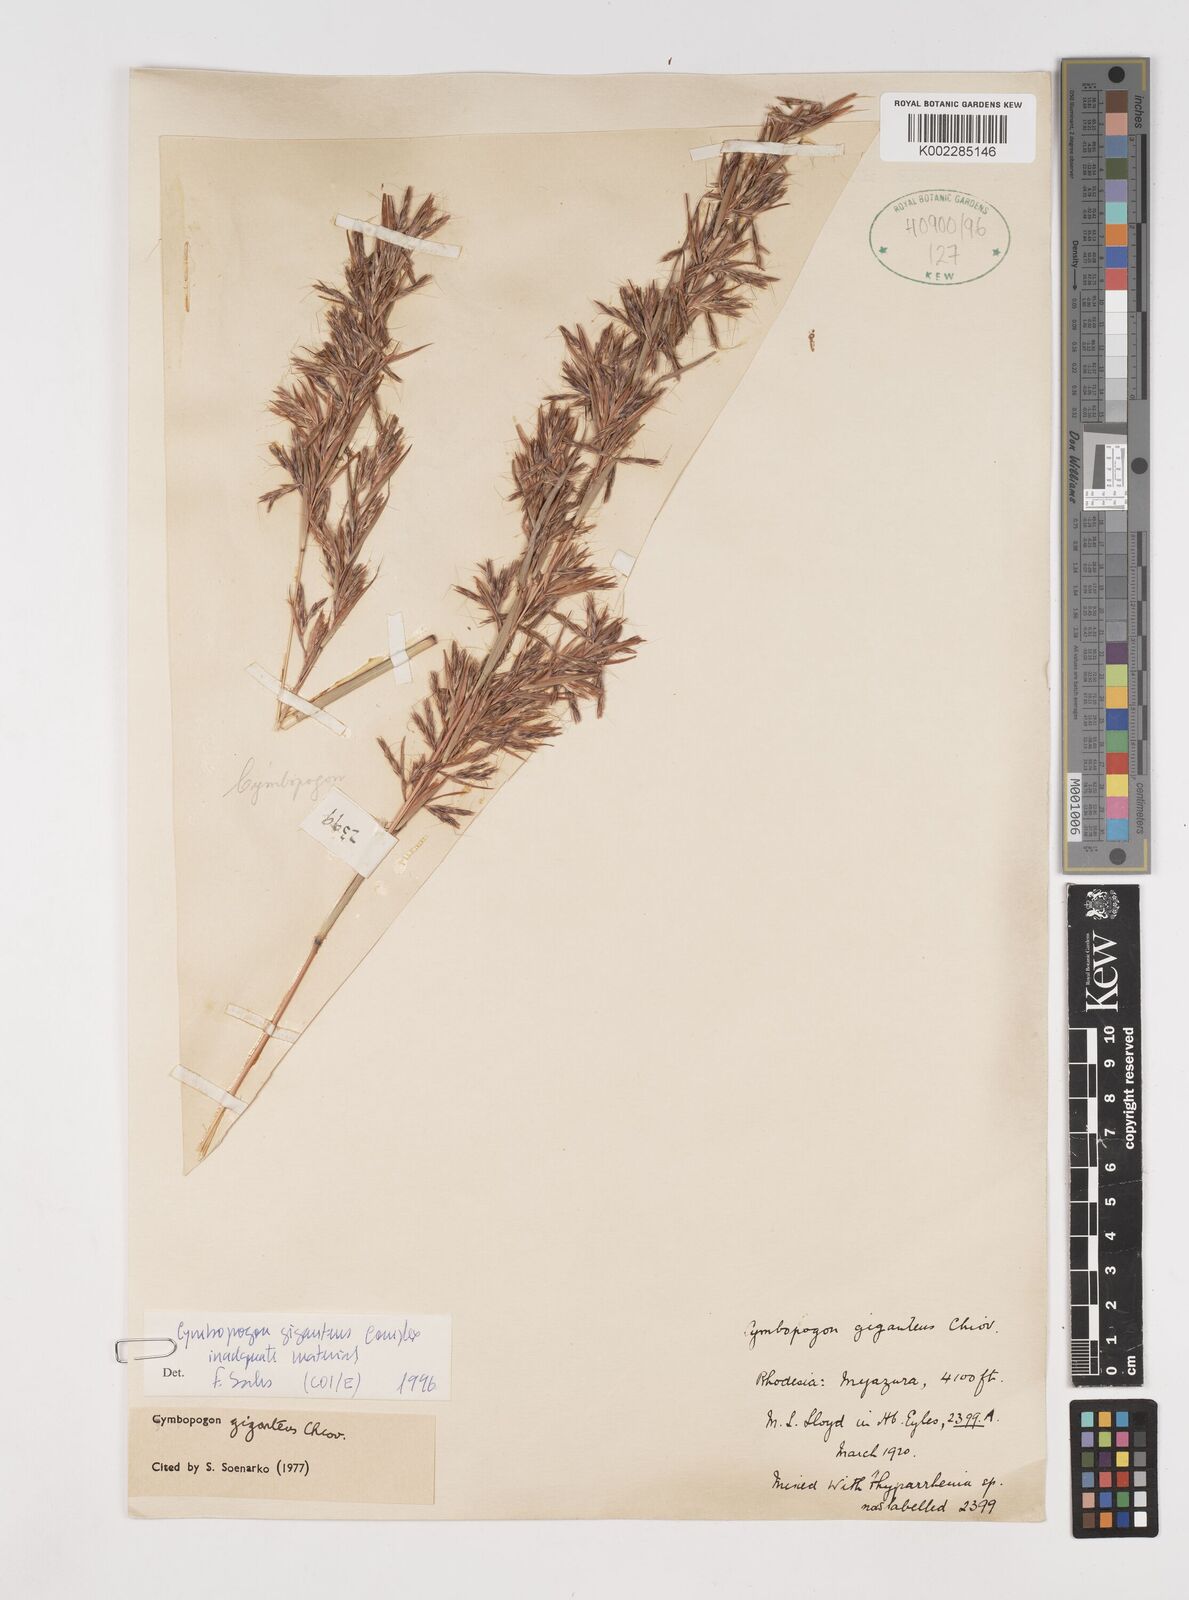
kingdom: Plantae
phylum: Tracheophyta
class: Liliopsida
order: Poales
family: Poaceae
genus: Cymbopogon
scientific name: Cymbopogon giganteus
